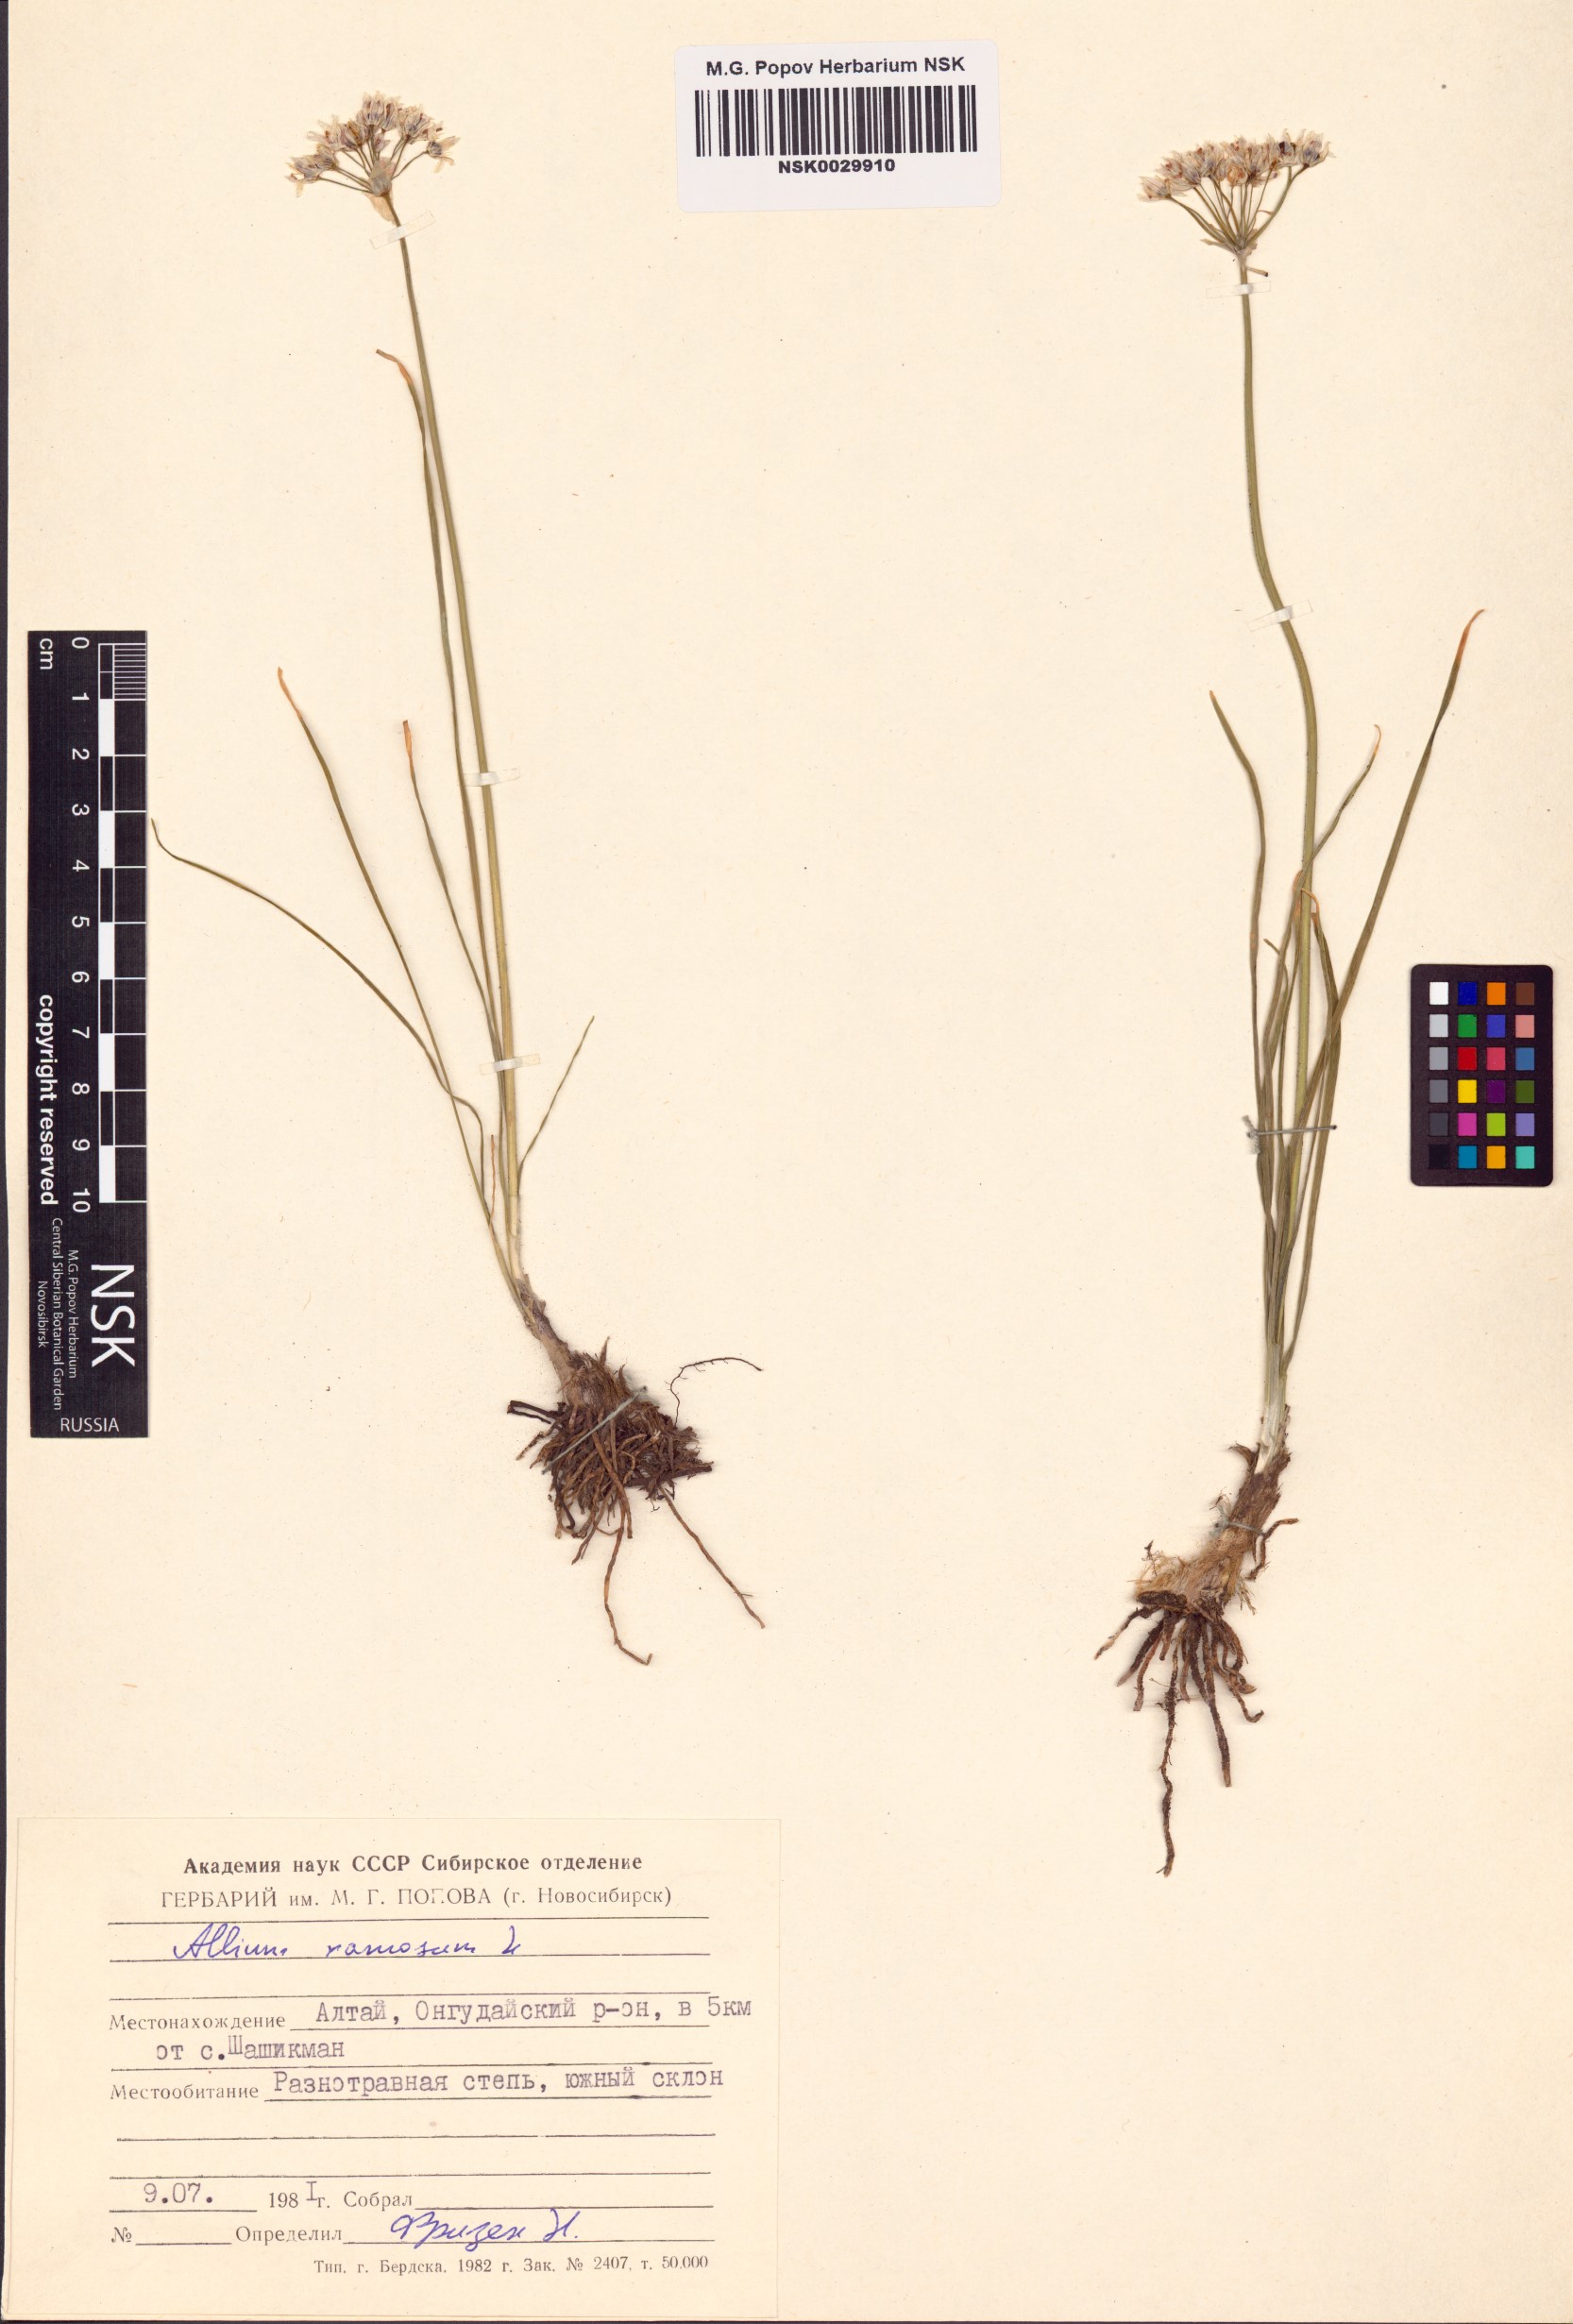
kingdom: Plantae
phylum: Tracheophyta
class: Liliopsida
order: Asparagales
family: Amaryllidaceae
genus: Allium
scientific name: Allium ramosum
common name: Fragrant garlic
